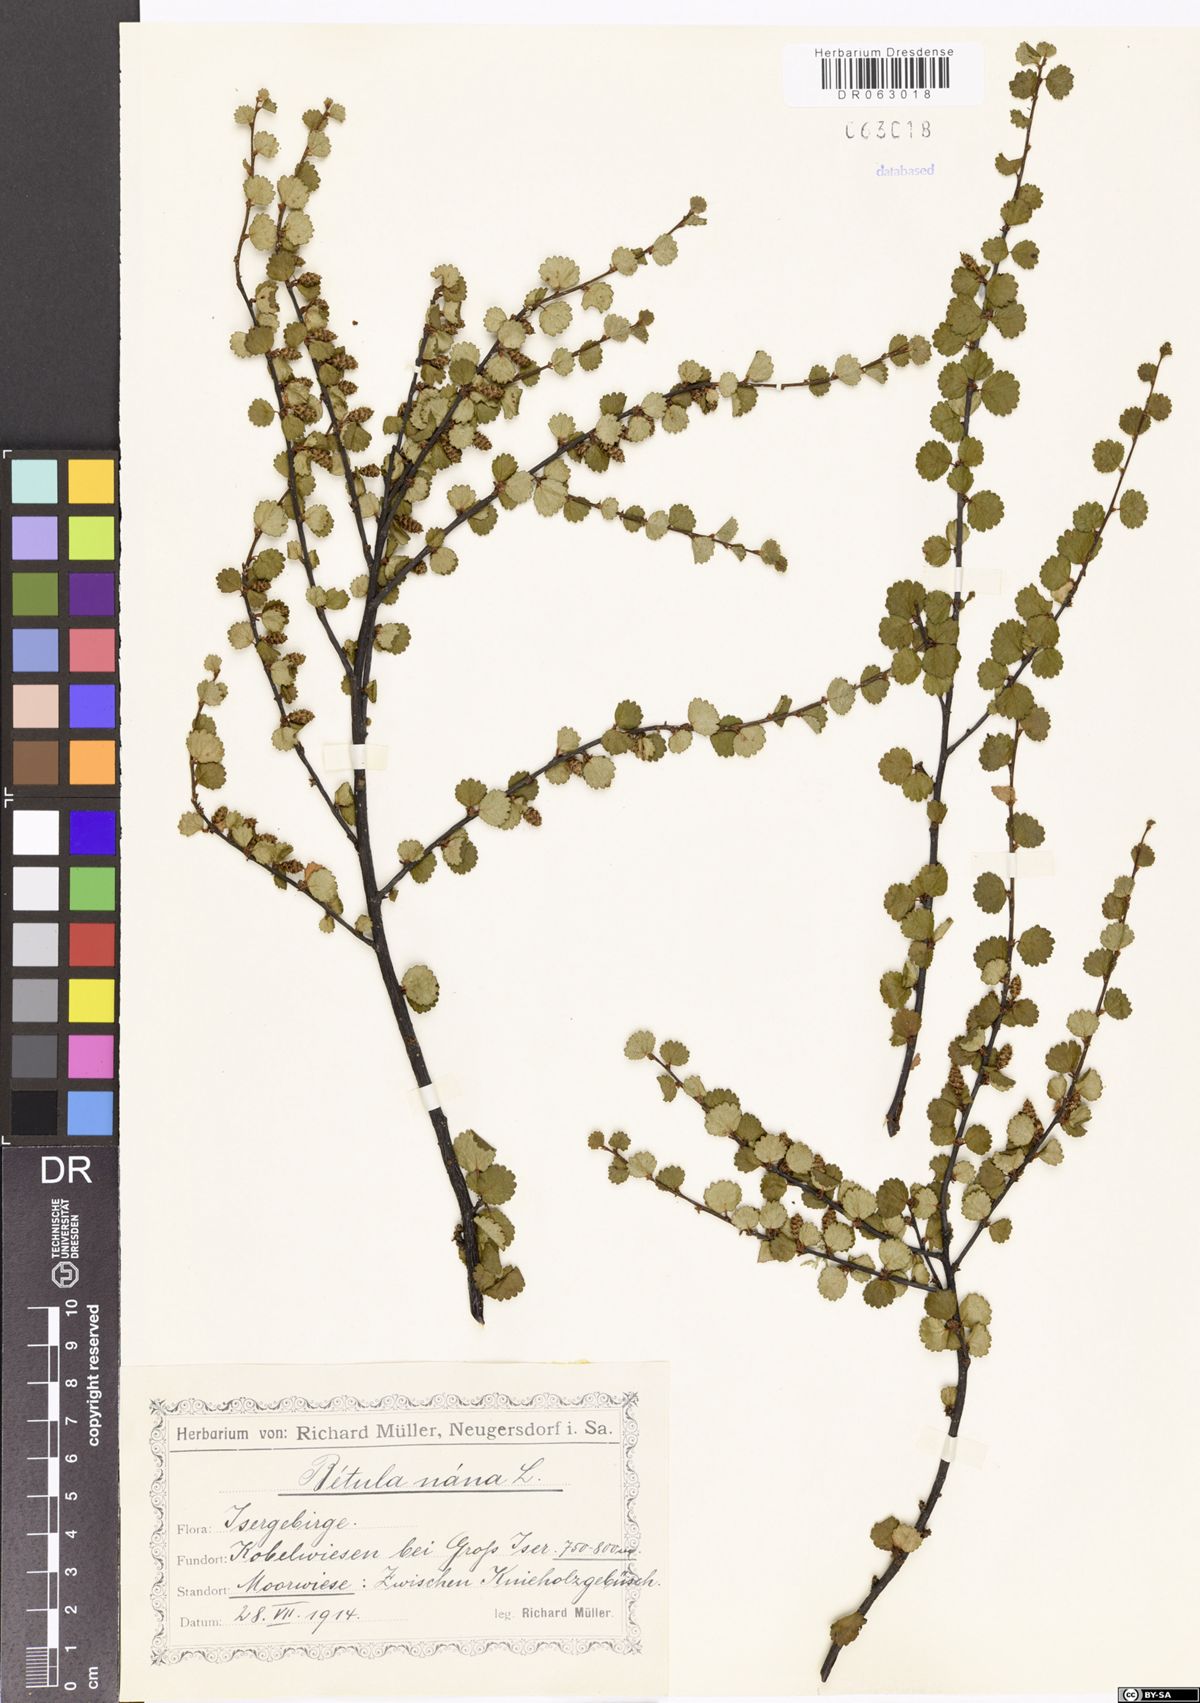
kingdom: Plantae
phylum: Tracheophyta
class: Magnoliopsida
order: Fagales
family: Betulaceae
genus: Betula
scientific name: Betula nana
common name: Arctic dwarf birch
